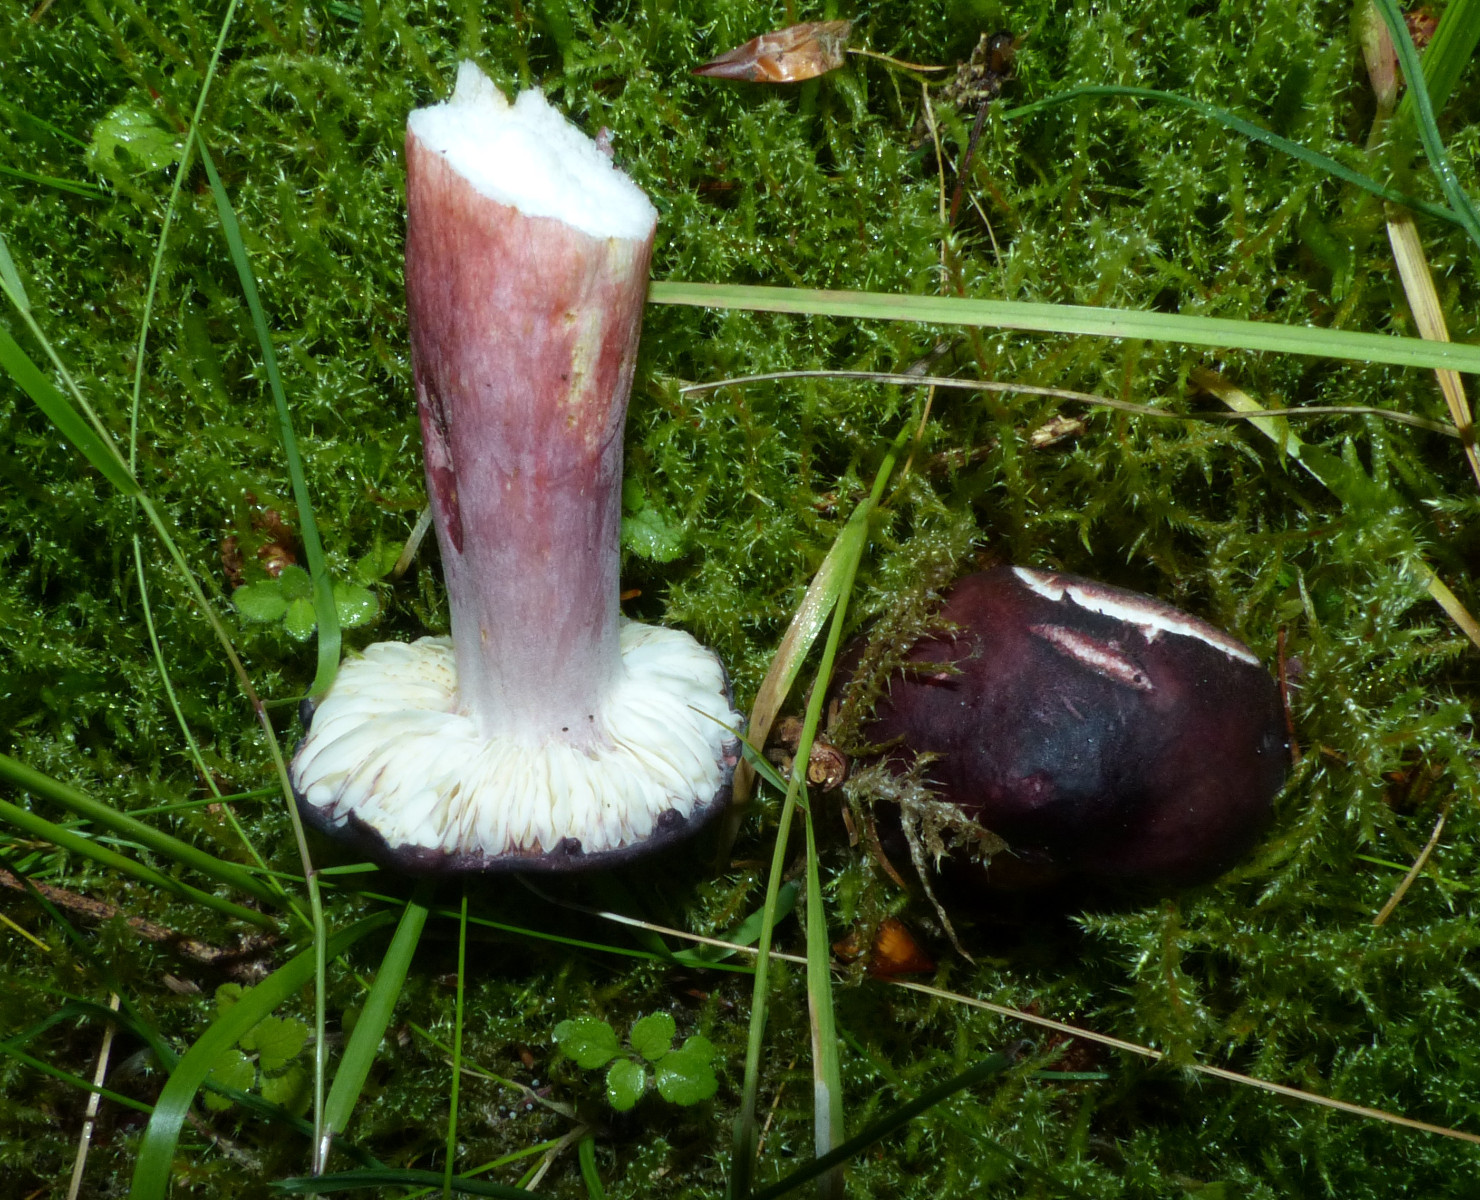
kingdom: Fungi
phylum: Basidiomycota
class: Agaricomycetes
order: Russulales
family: Russulaceae
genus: Russula
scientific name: Russula queletii
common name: Quélets skørhat
